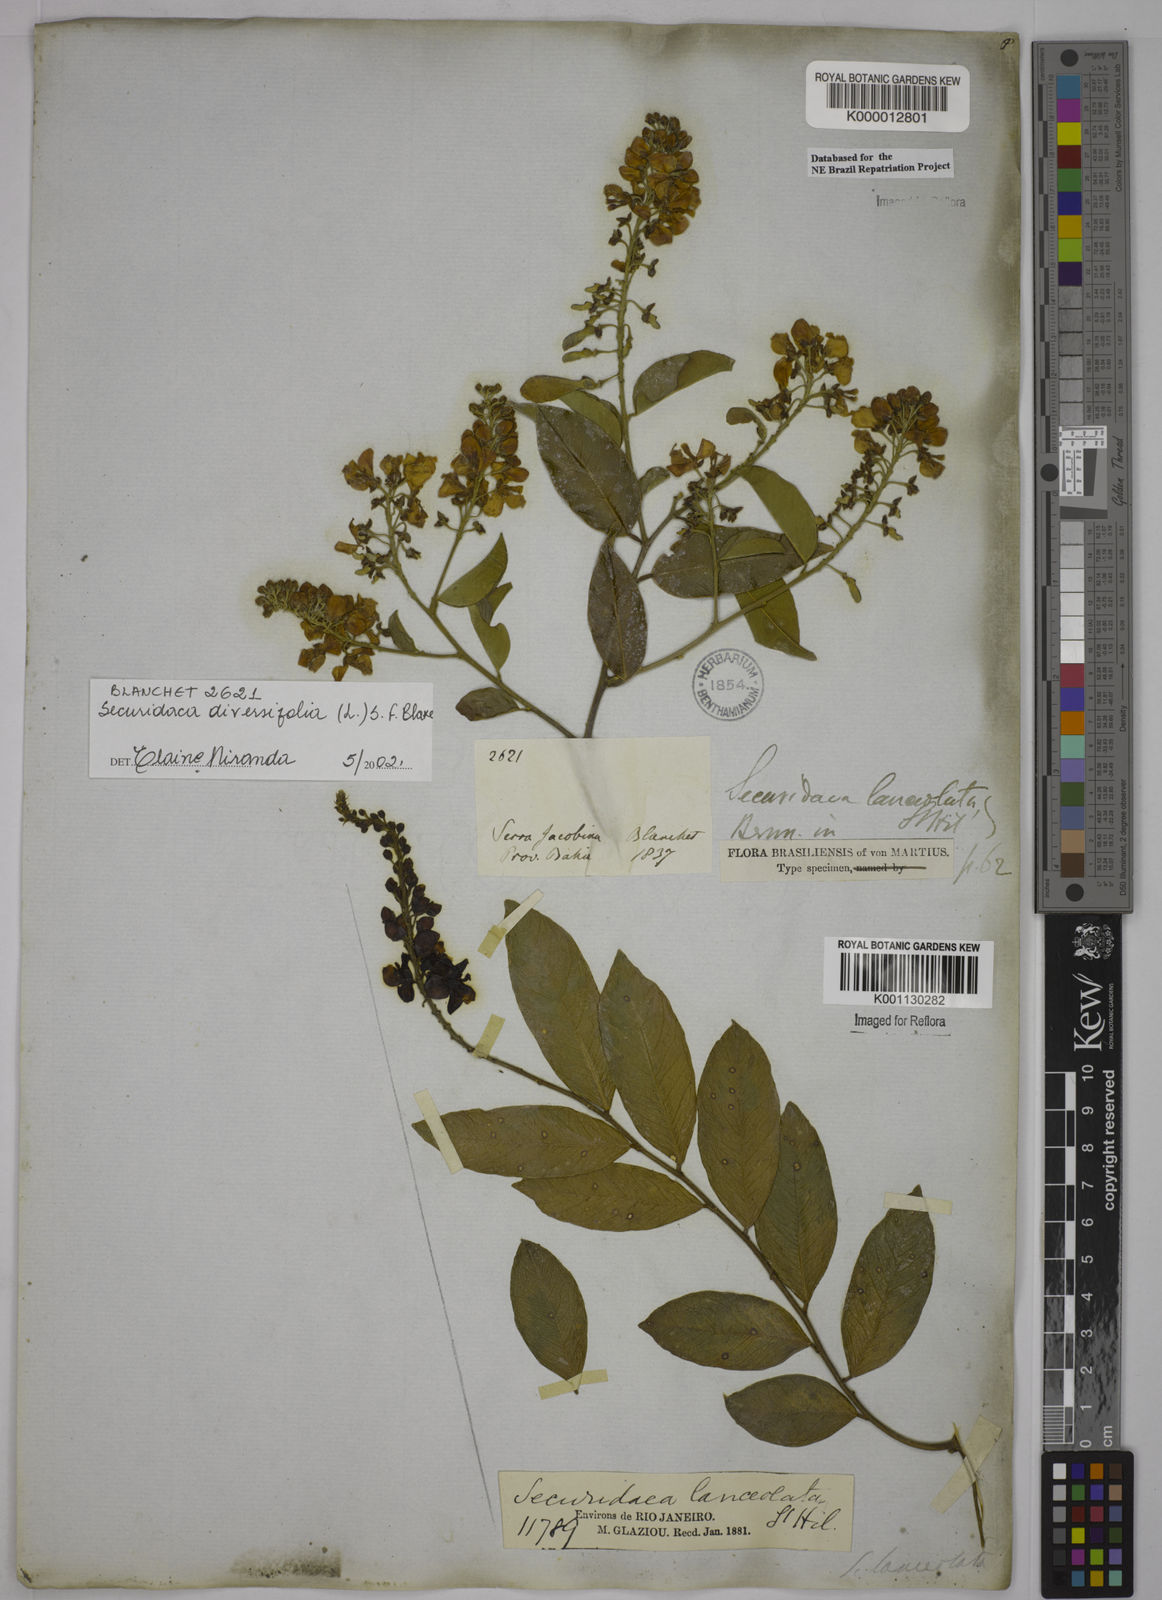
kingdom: Plantae
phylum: Tracheophyta
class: Magnoliopsida
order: Fabales
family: Polygalaceae
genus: Securidaca
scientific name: Securidaca diversifolia
